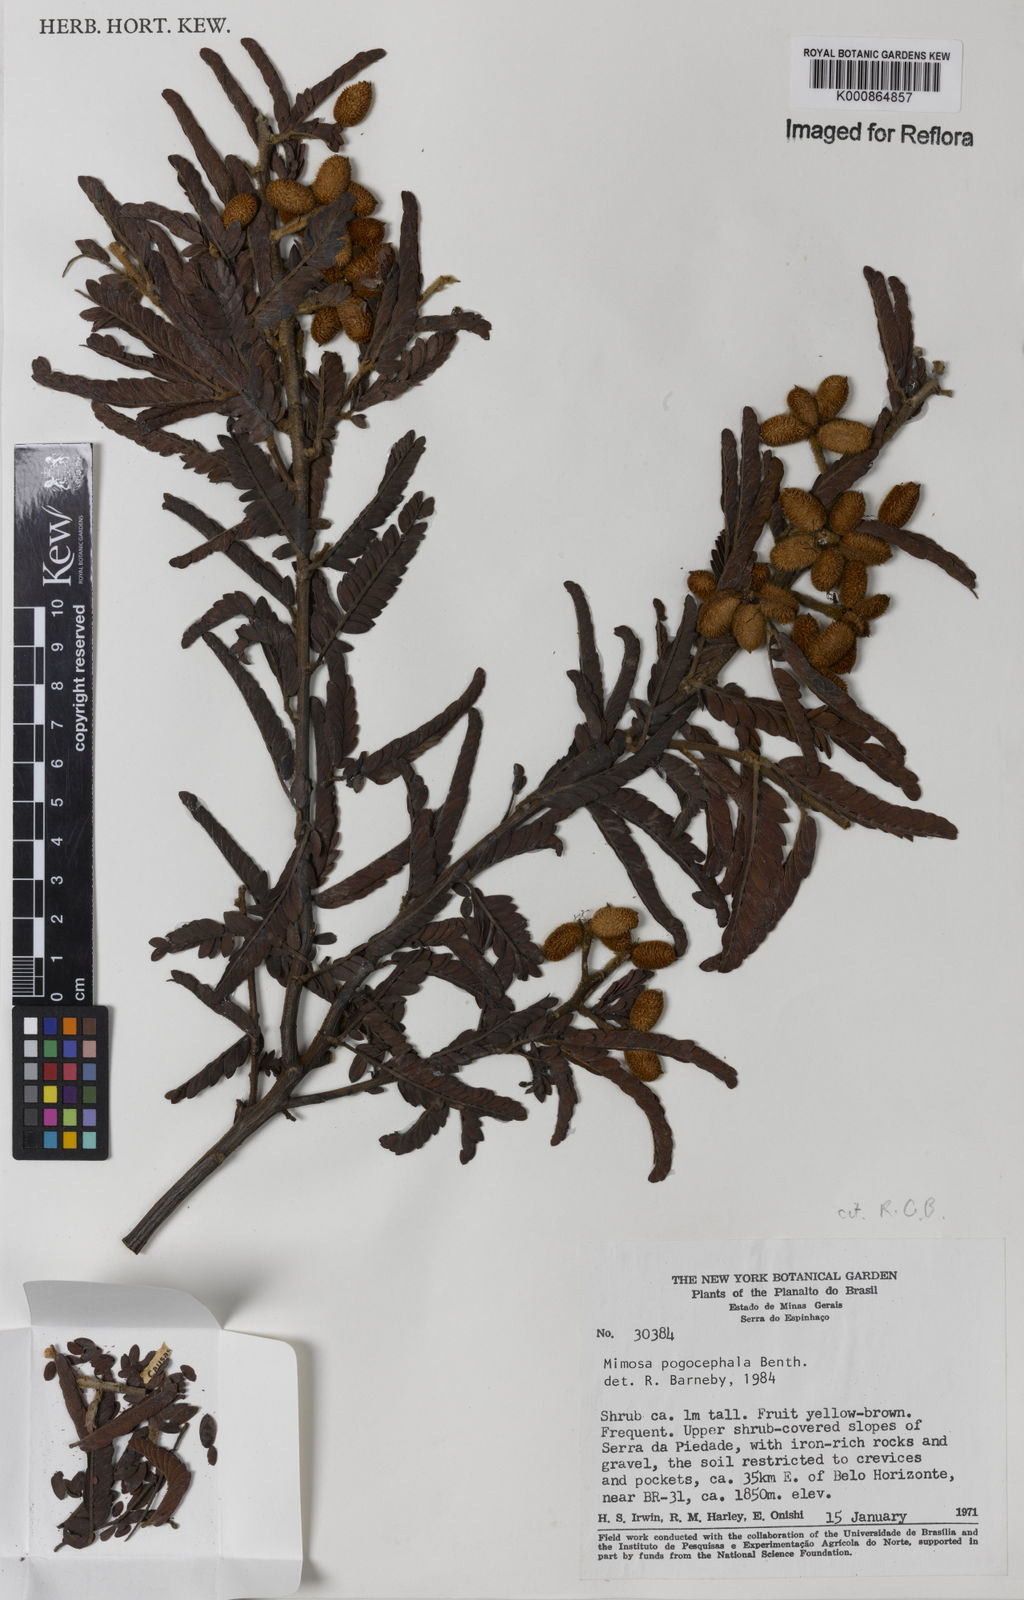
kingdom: Plantae
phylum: Tracheophyta
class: Magnoliopsida
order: Fabales
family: Fabaceae
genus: Mimosa
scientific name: Mimosa pogocephala
